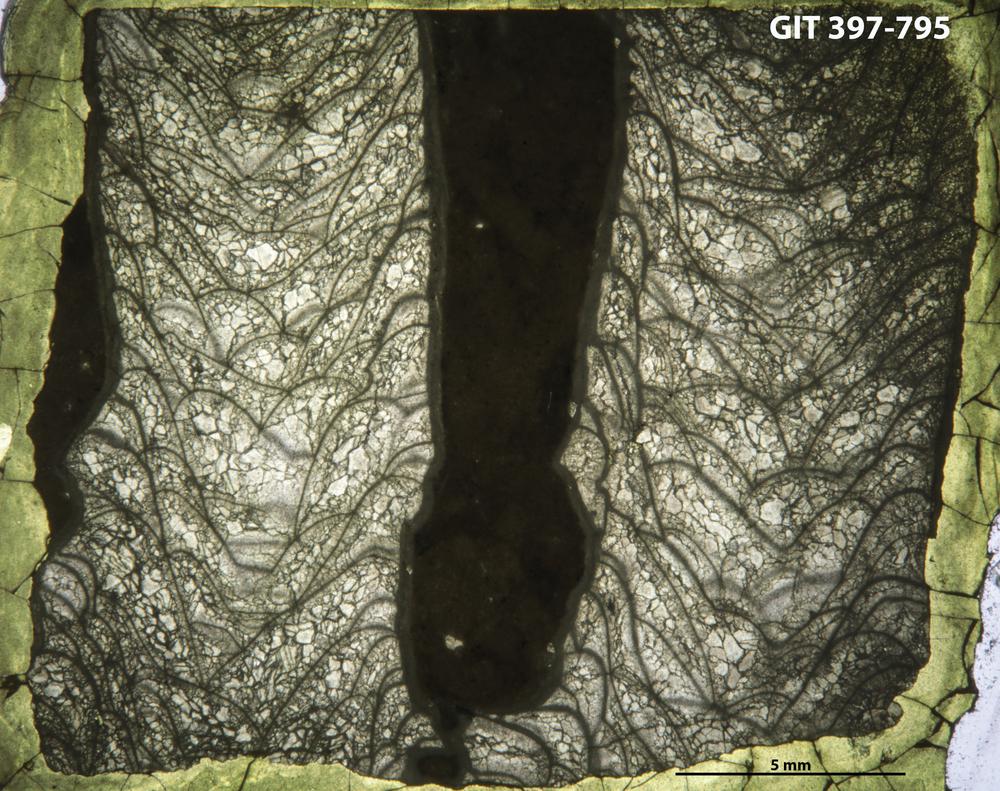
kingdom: Animalia
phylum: Cnidaria
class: Anthozoa
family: Cystiphyllidae
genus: Microplasma
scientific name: Microplasma
